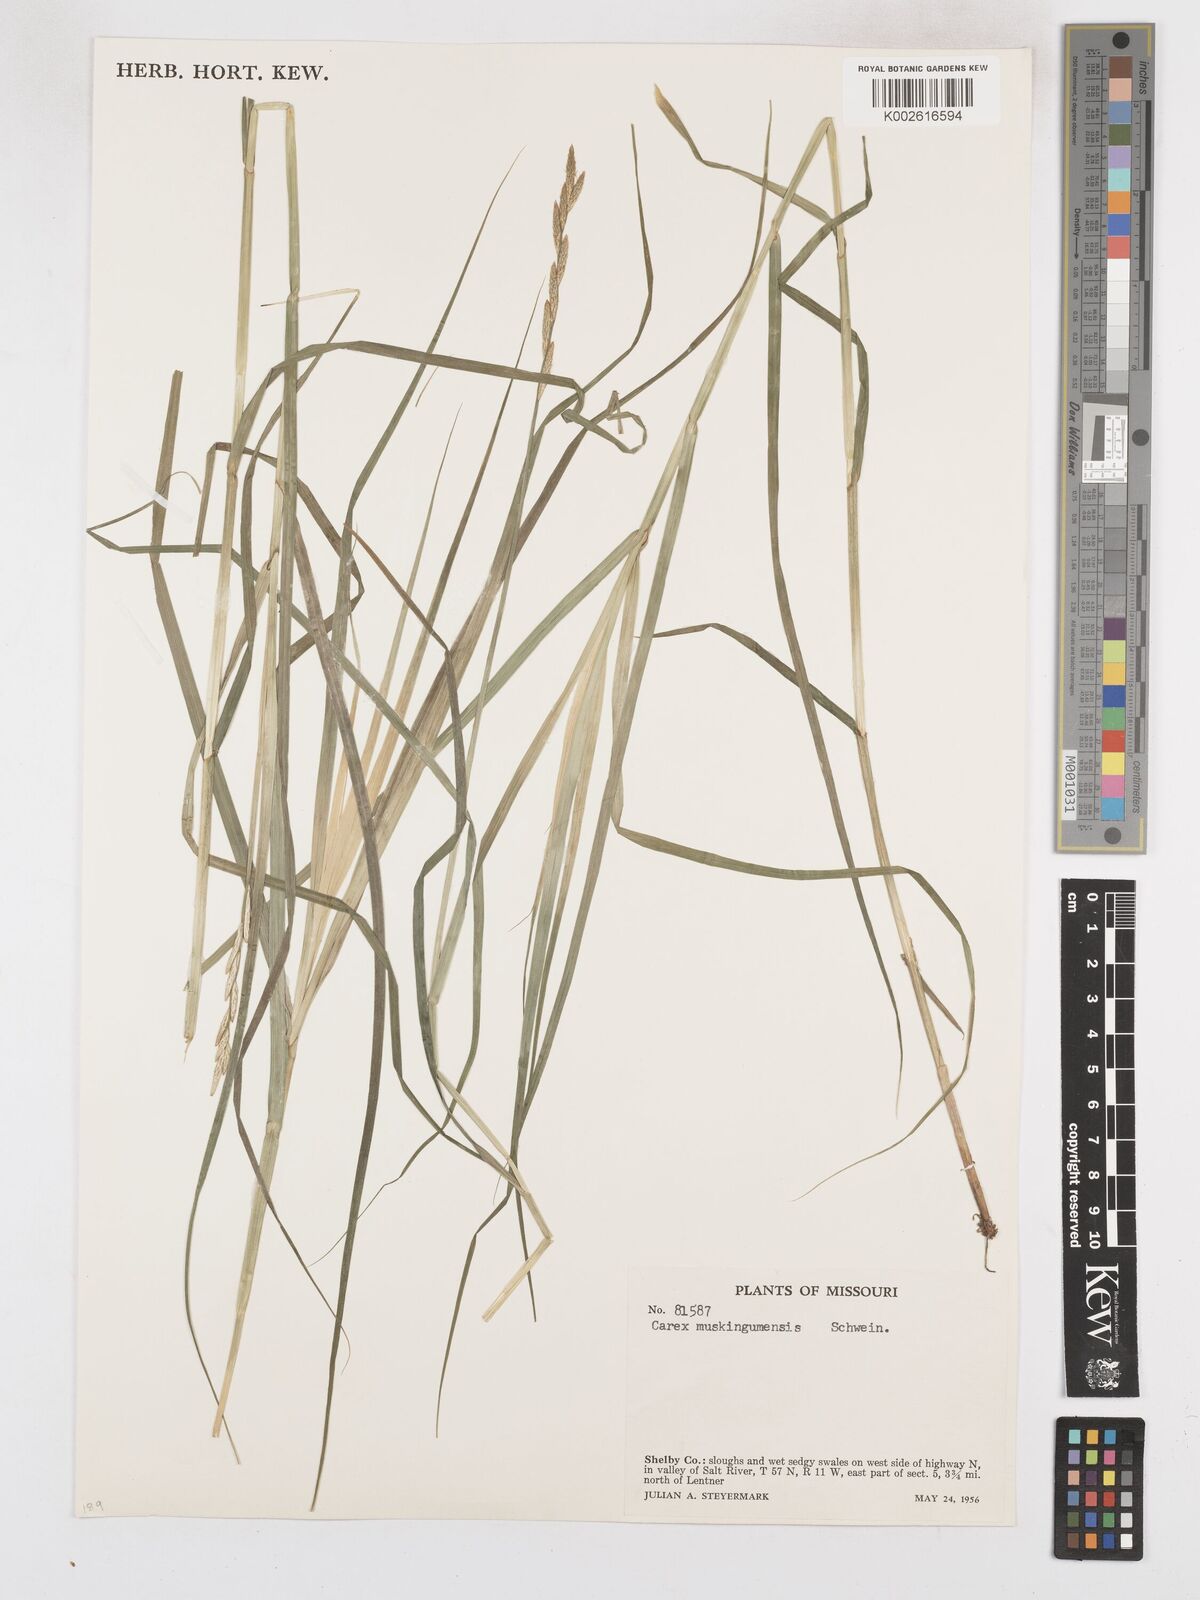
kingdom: Plantae
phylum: Tracheophyta
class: Liliopsida
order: Poales
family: Cyperaceae
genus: Carex
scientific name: Carex muskingumensis
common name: Muskingum sedge
